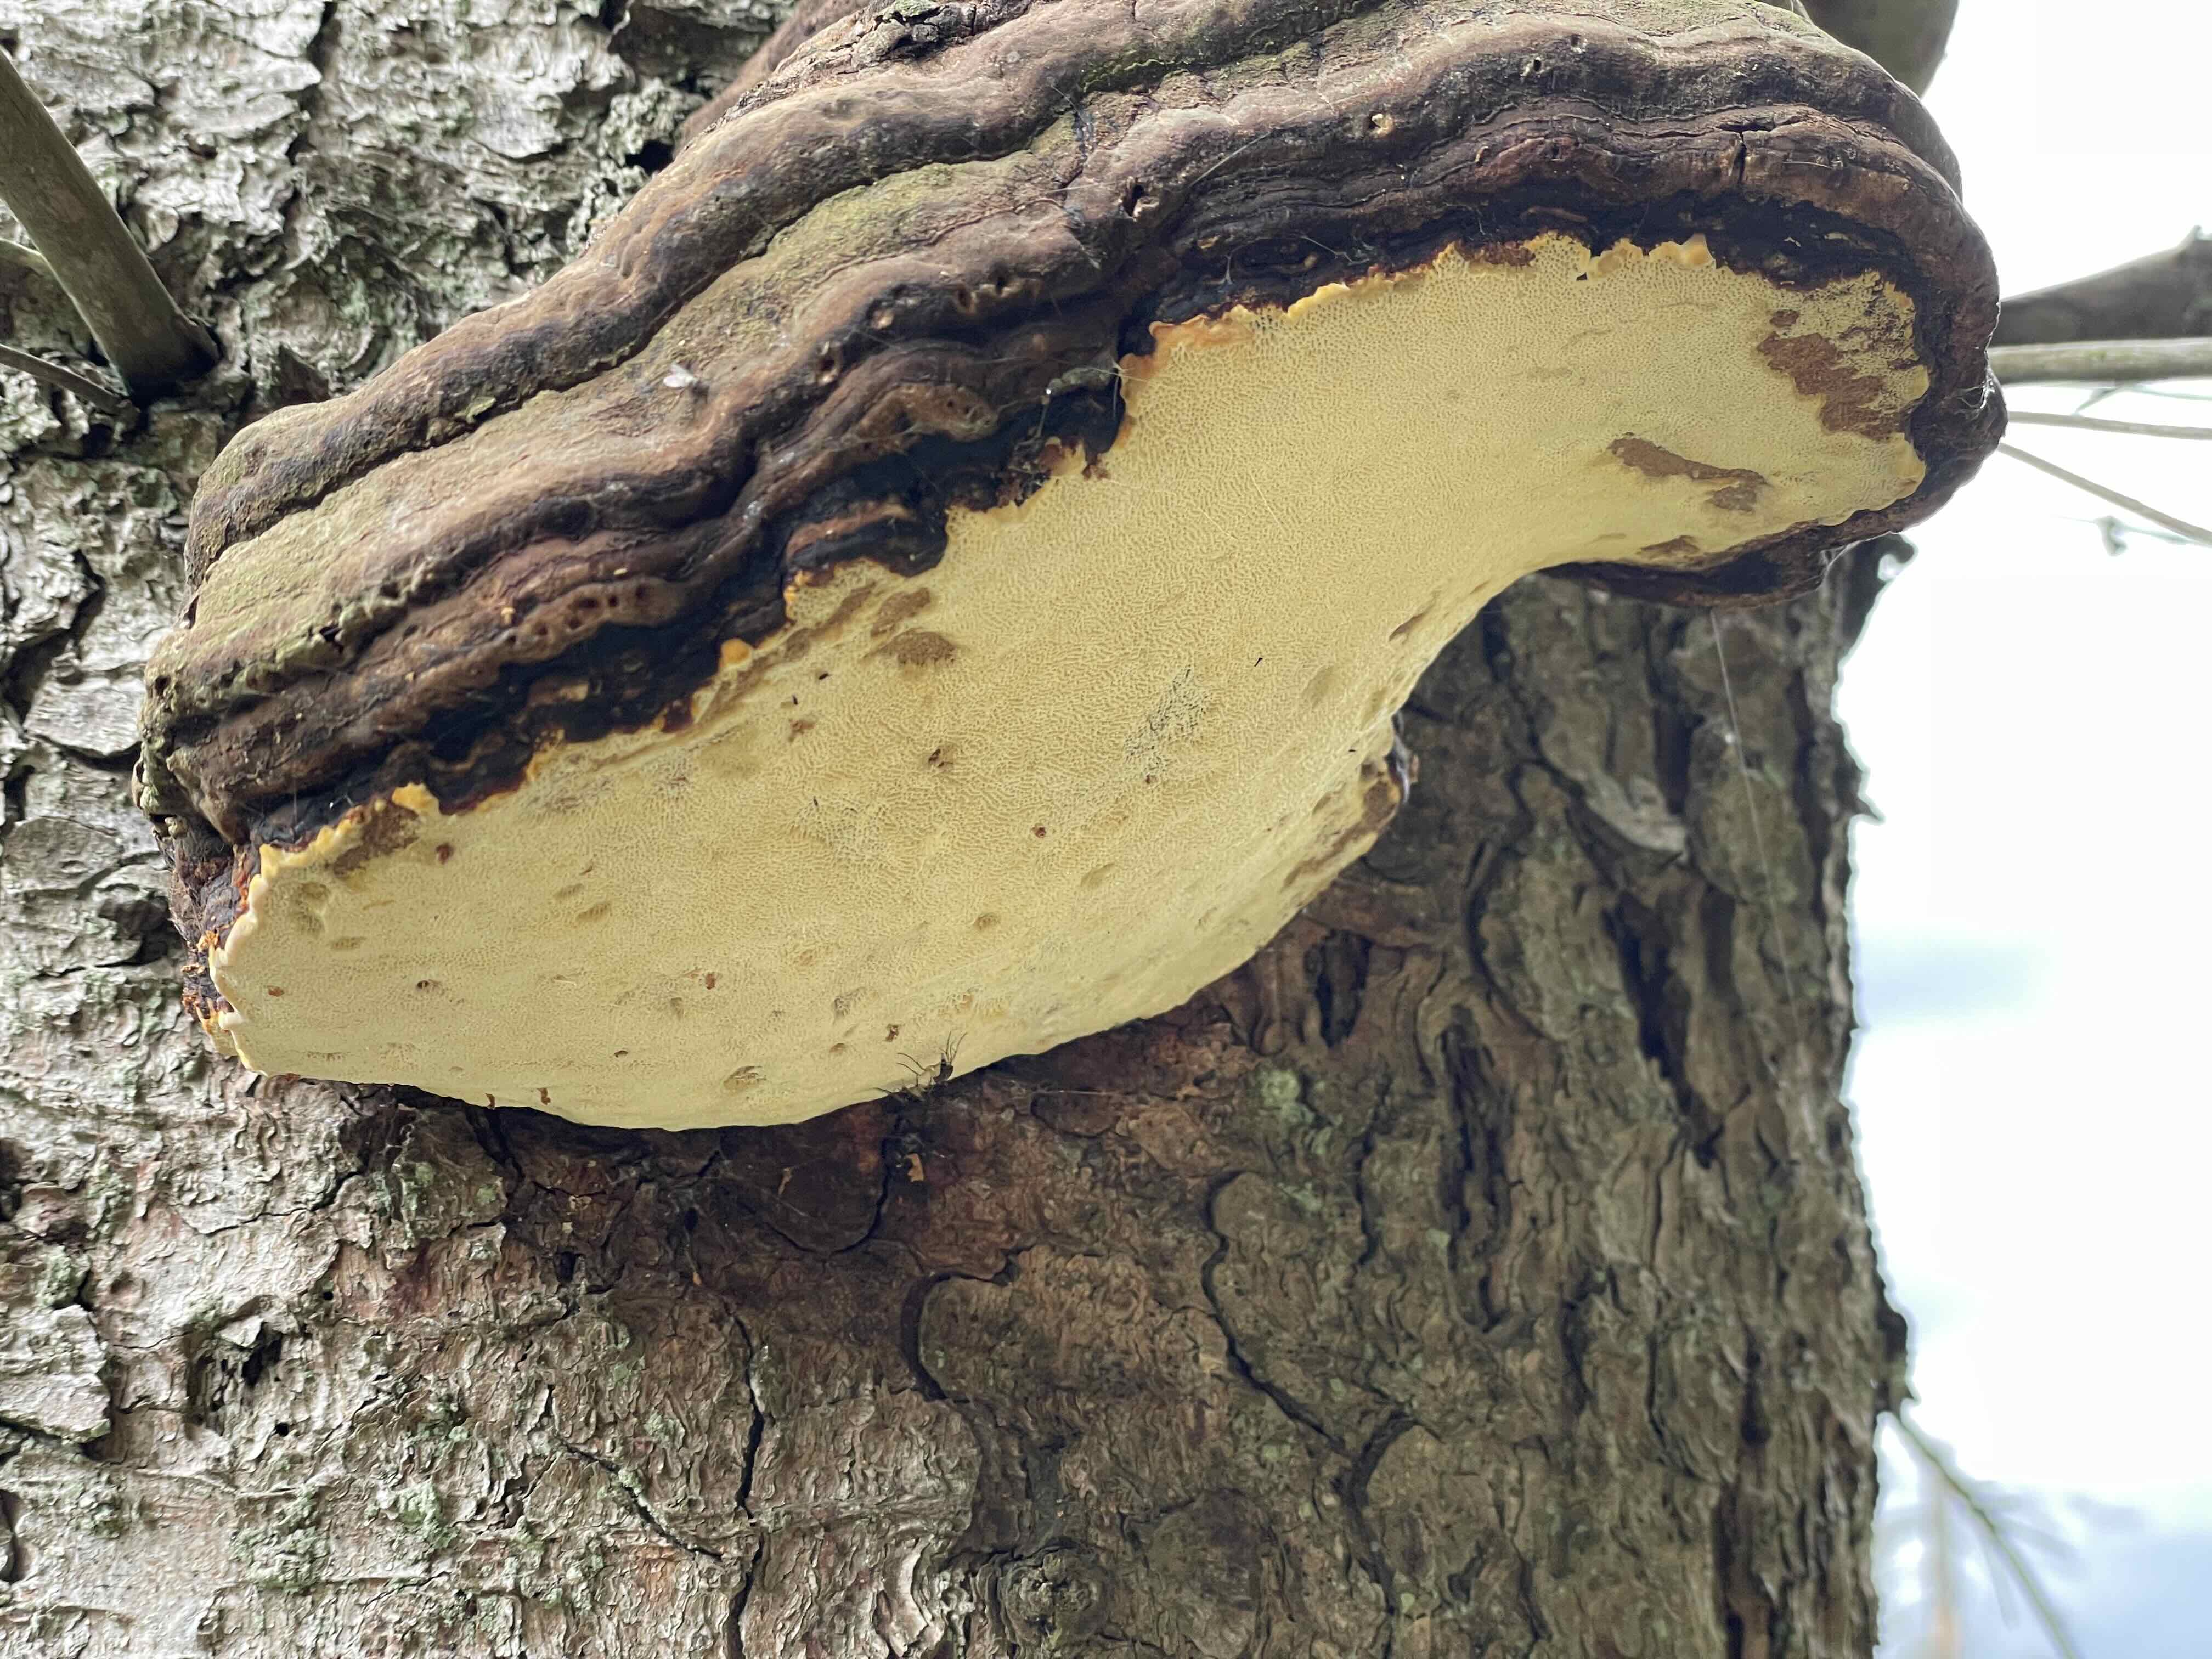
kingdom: Fungi
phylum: Basidiomycota
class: Agaricomycetes
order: Polyporales
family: Fomitopsidaceae
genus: Fomitopsis
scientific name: Fomitopsis pinicola
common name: randbæltet hovporesvamp
